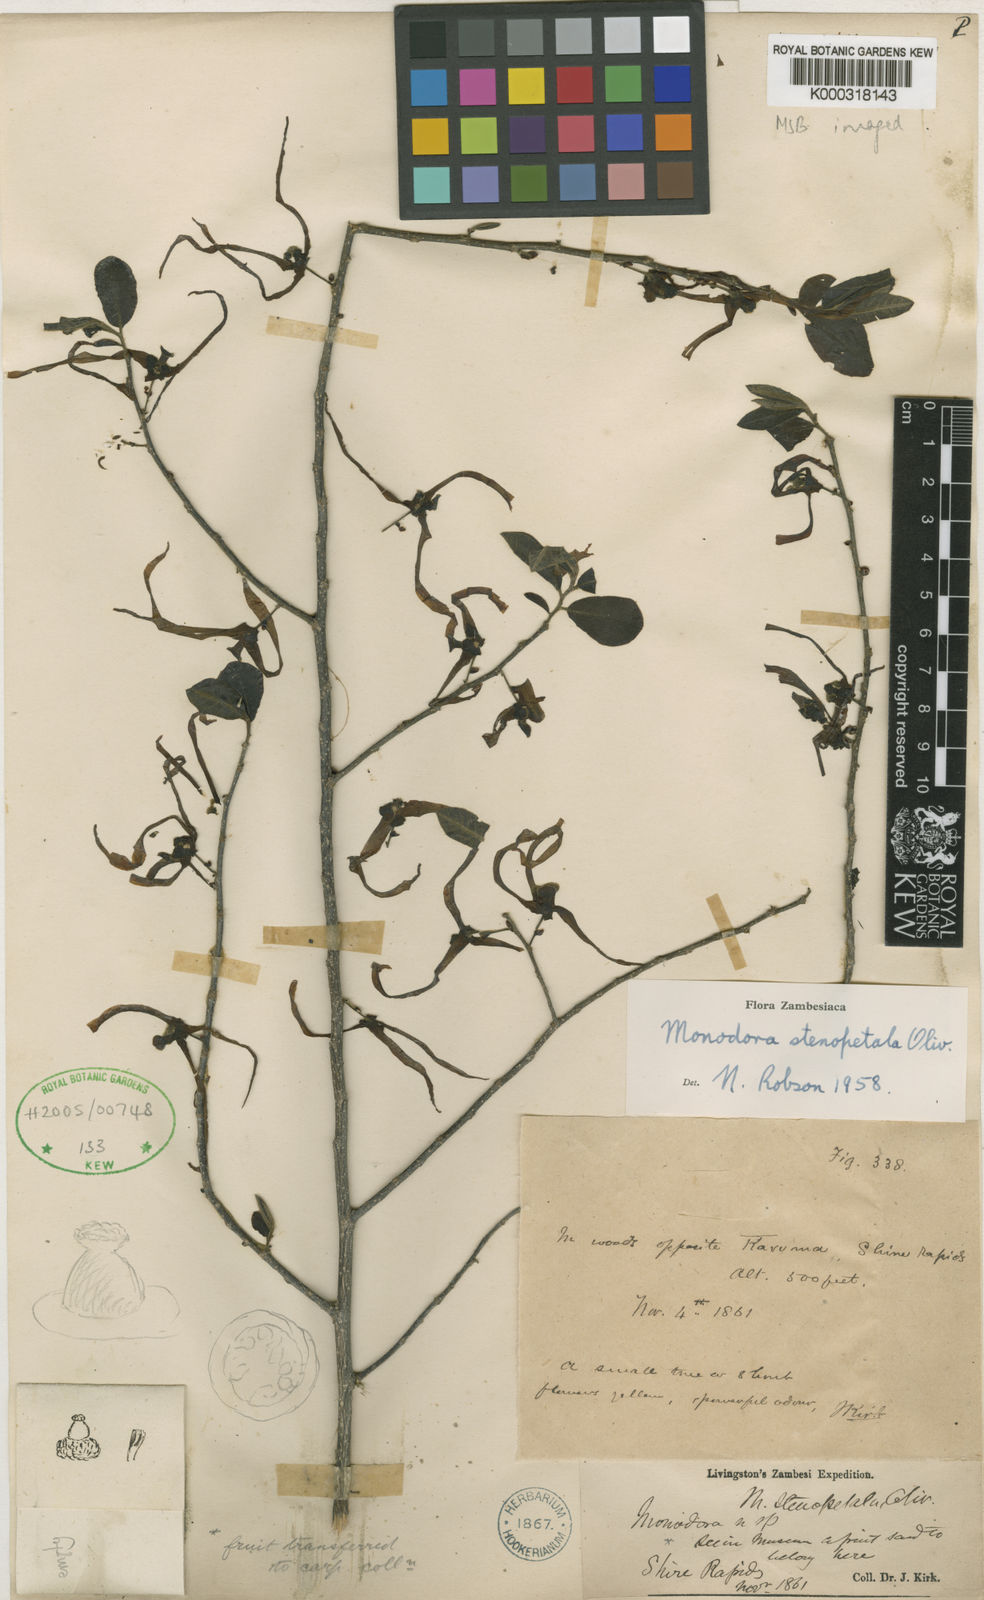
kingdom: Plantae
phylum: Tracheophyta
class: Magnoliopsida
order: Magnoliales
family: Annonaceae
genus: Monodora
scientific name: Monodora stenopetala
